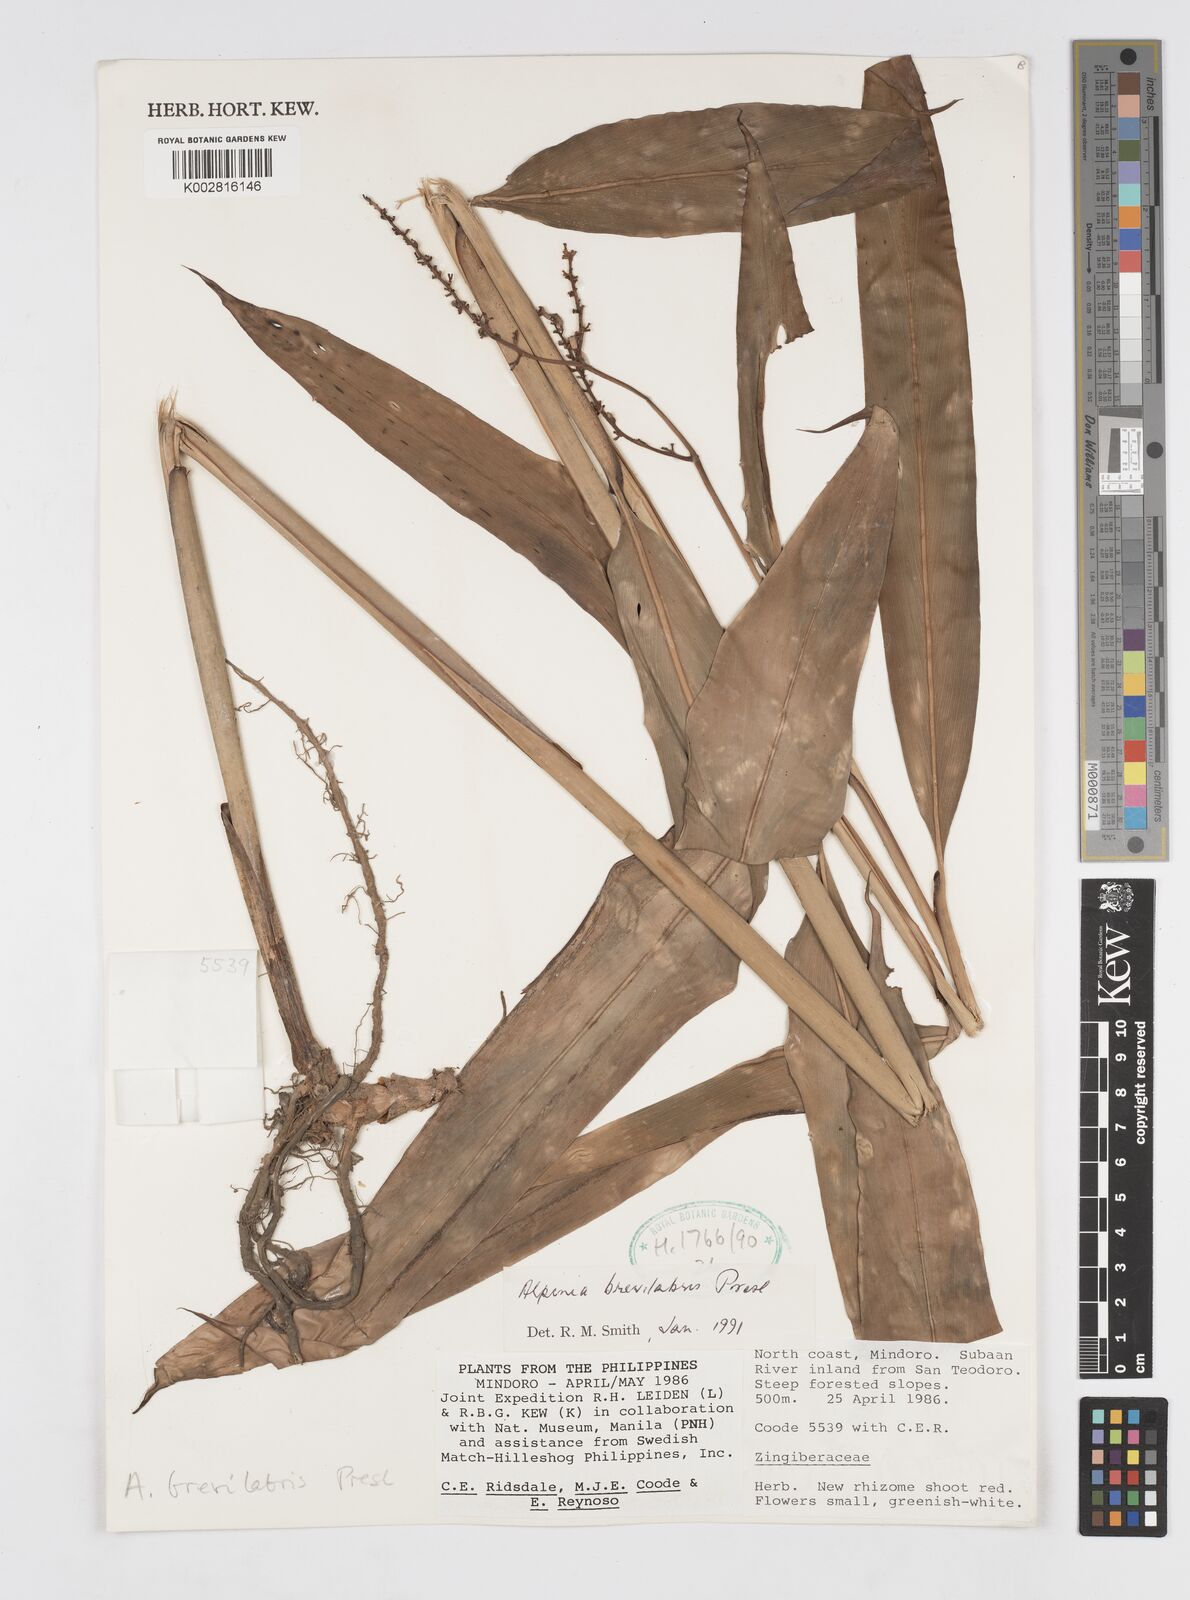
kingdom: Plantae
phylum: Tracheophyta
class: Liliopsida
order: Zingiberales
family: Zingiberaceae
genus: Alpinia
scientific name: Alpinia brevilabris
